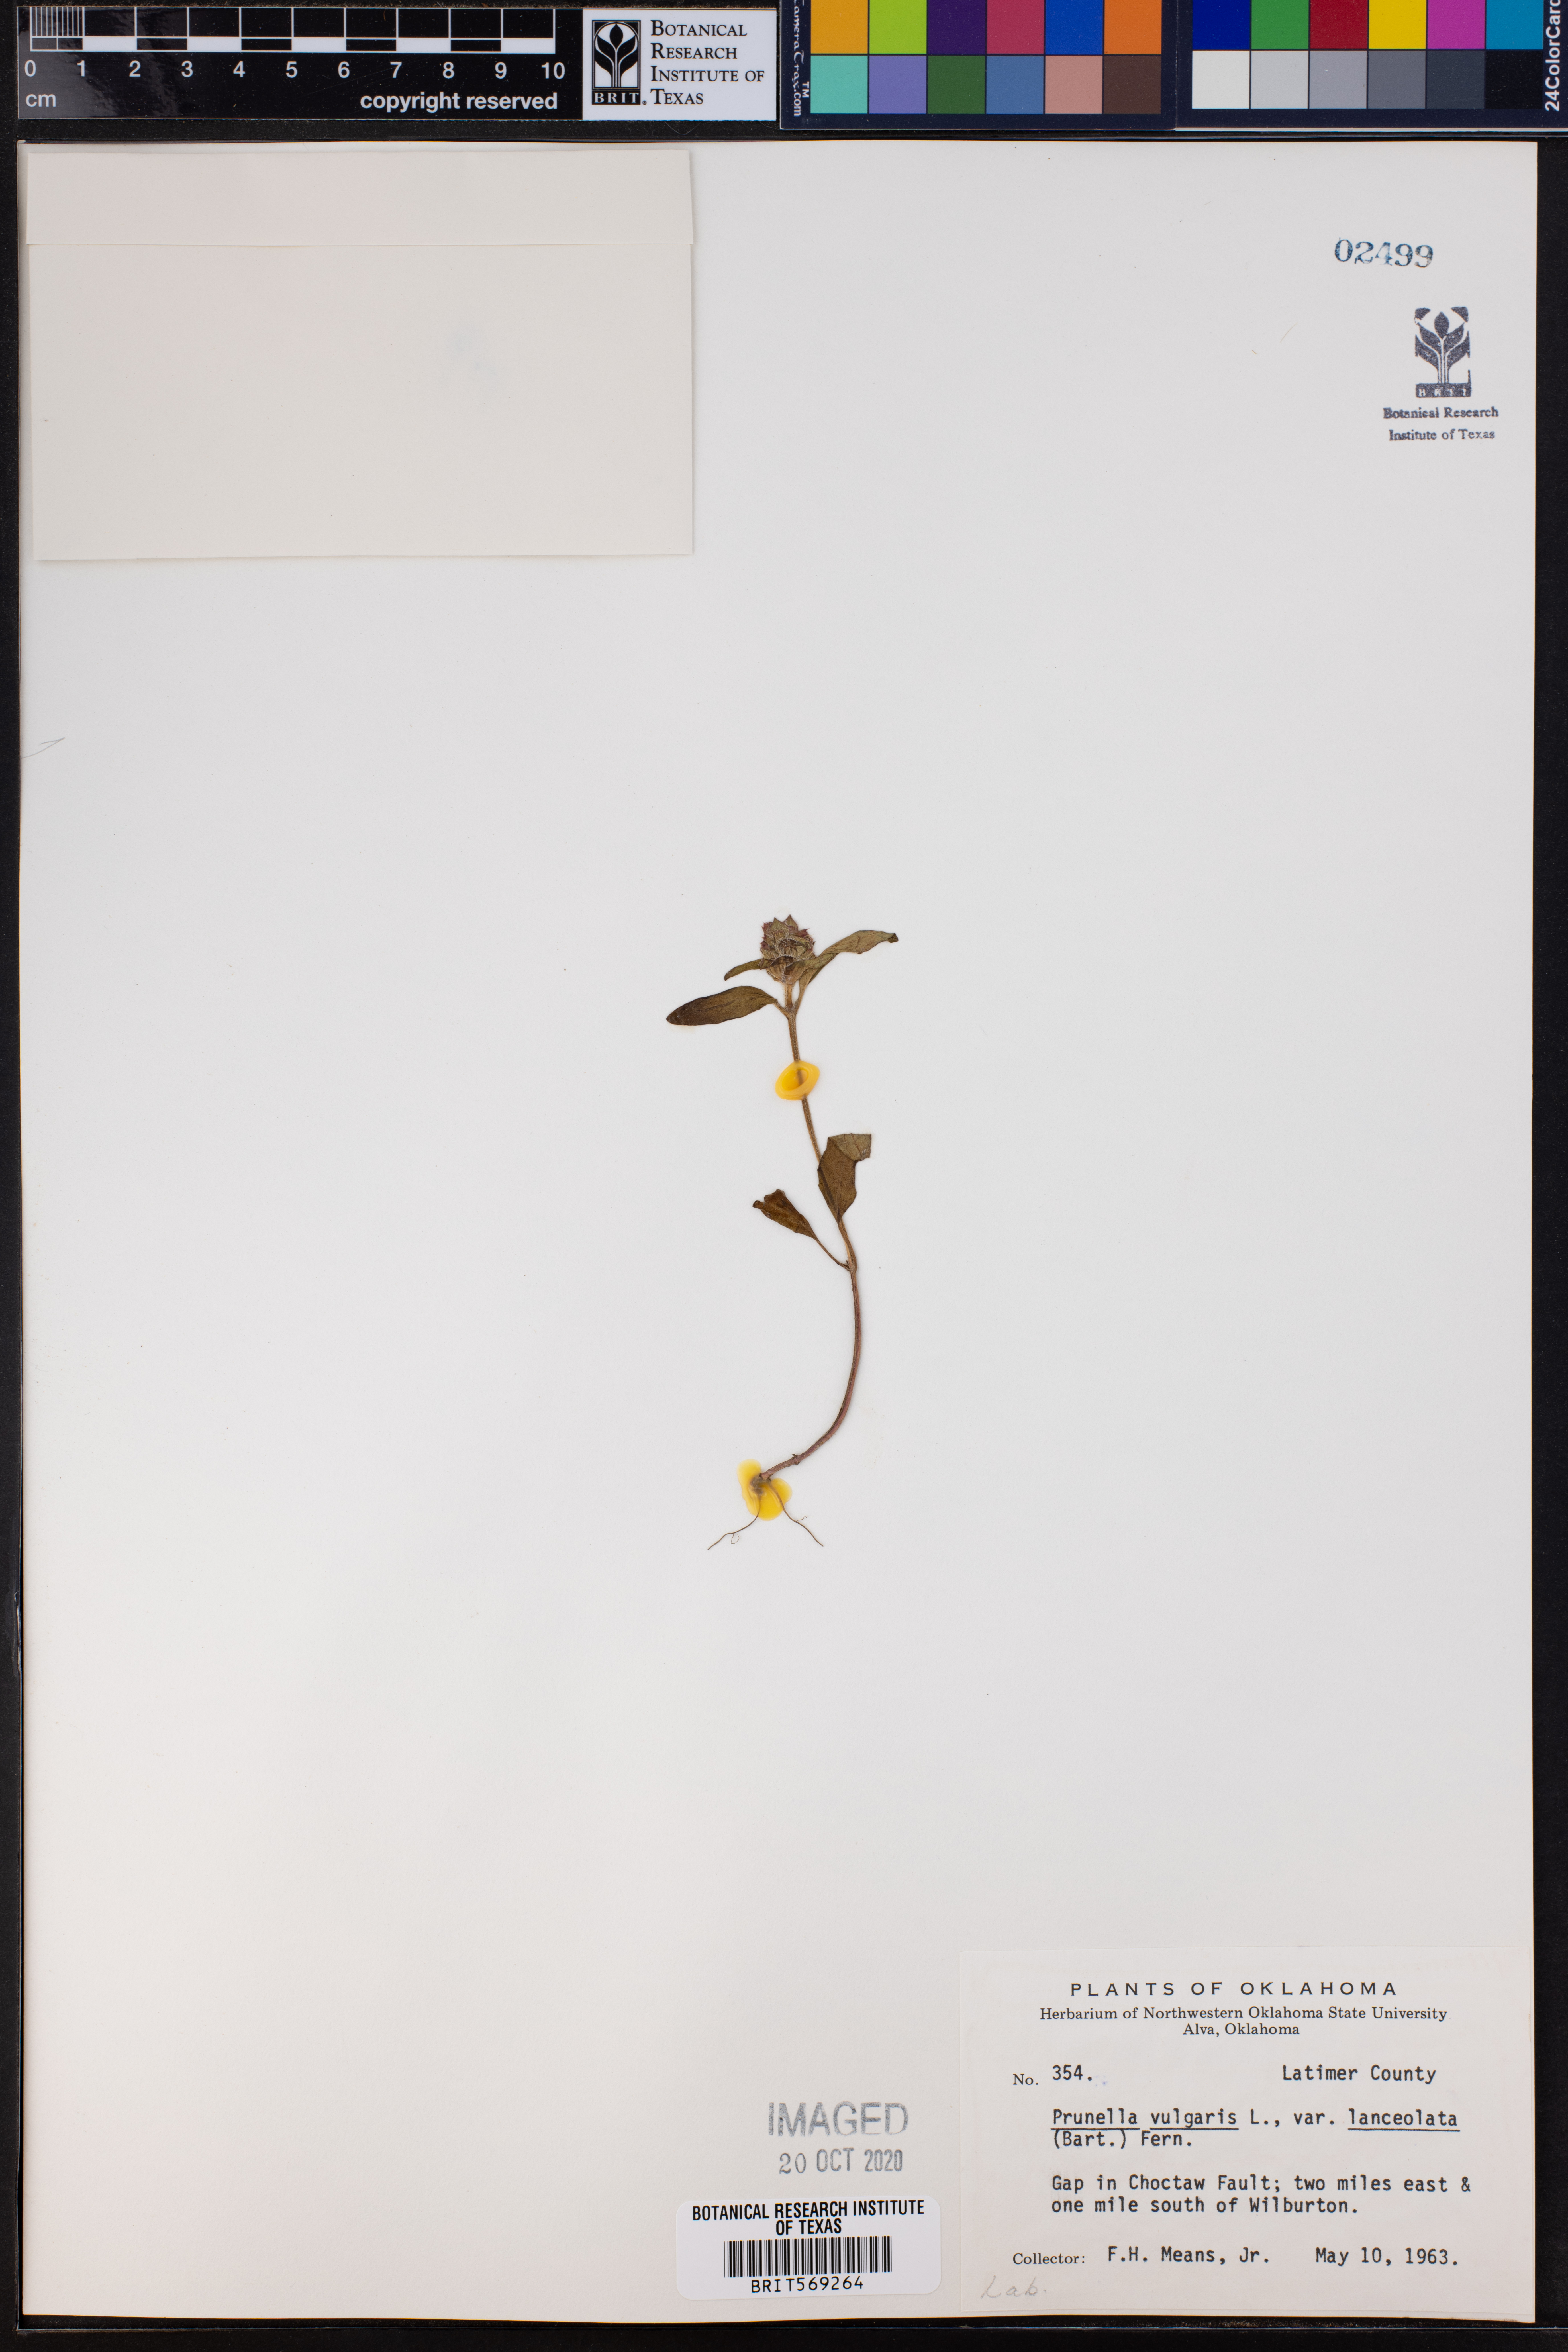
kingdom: Plantae
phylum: Tracheophyta
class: Magnoliopsida
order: Lamiales
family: Lamiaceae
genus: Prunella
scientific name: Prunella vulgaris
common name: Heal-all
